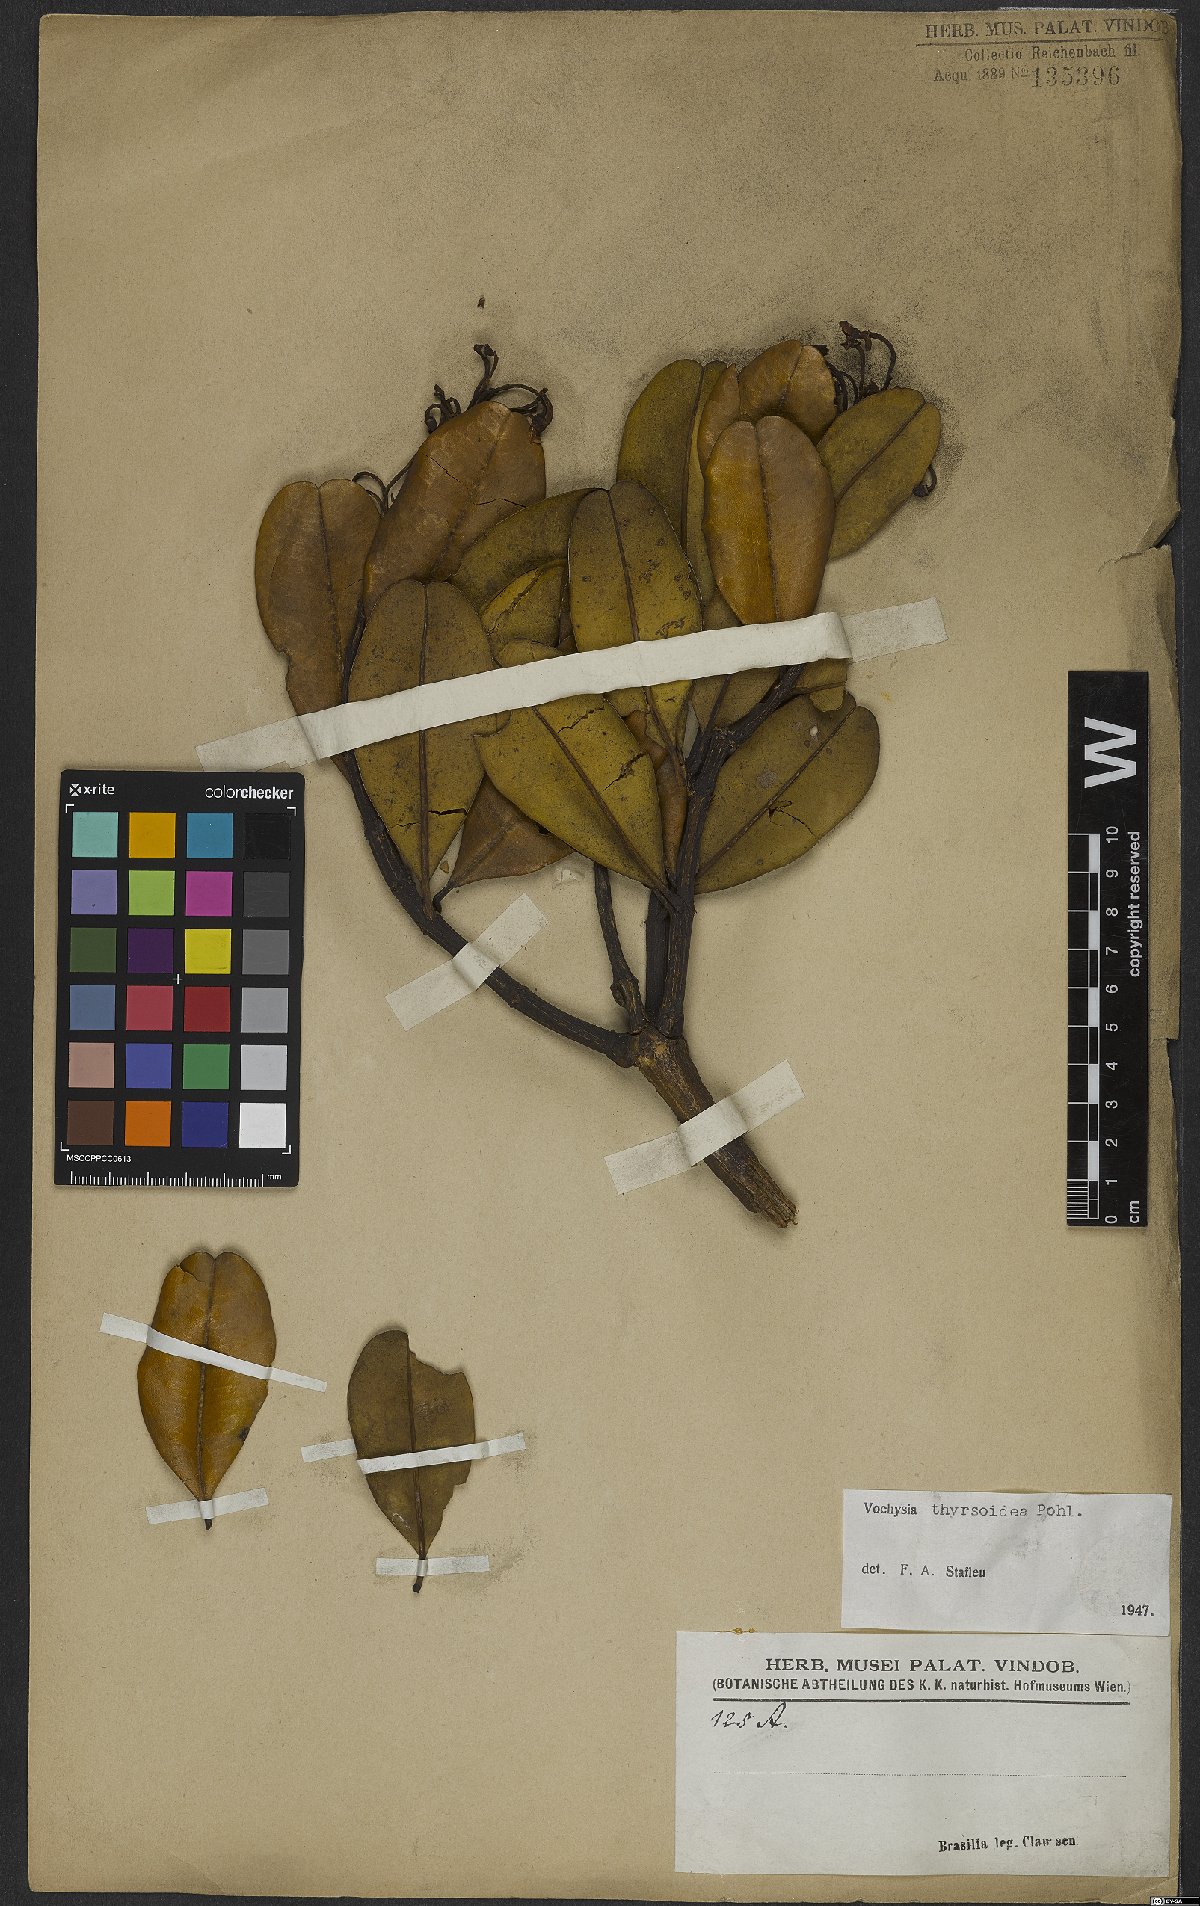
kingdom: Plantae
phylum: Tracheophyta
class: Magnoliopsida
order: Myrtales
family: Vochysiaceae
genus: Vochysia
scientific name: Vochysia thyrsoidea
